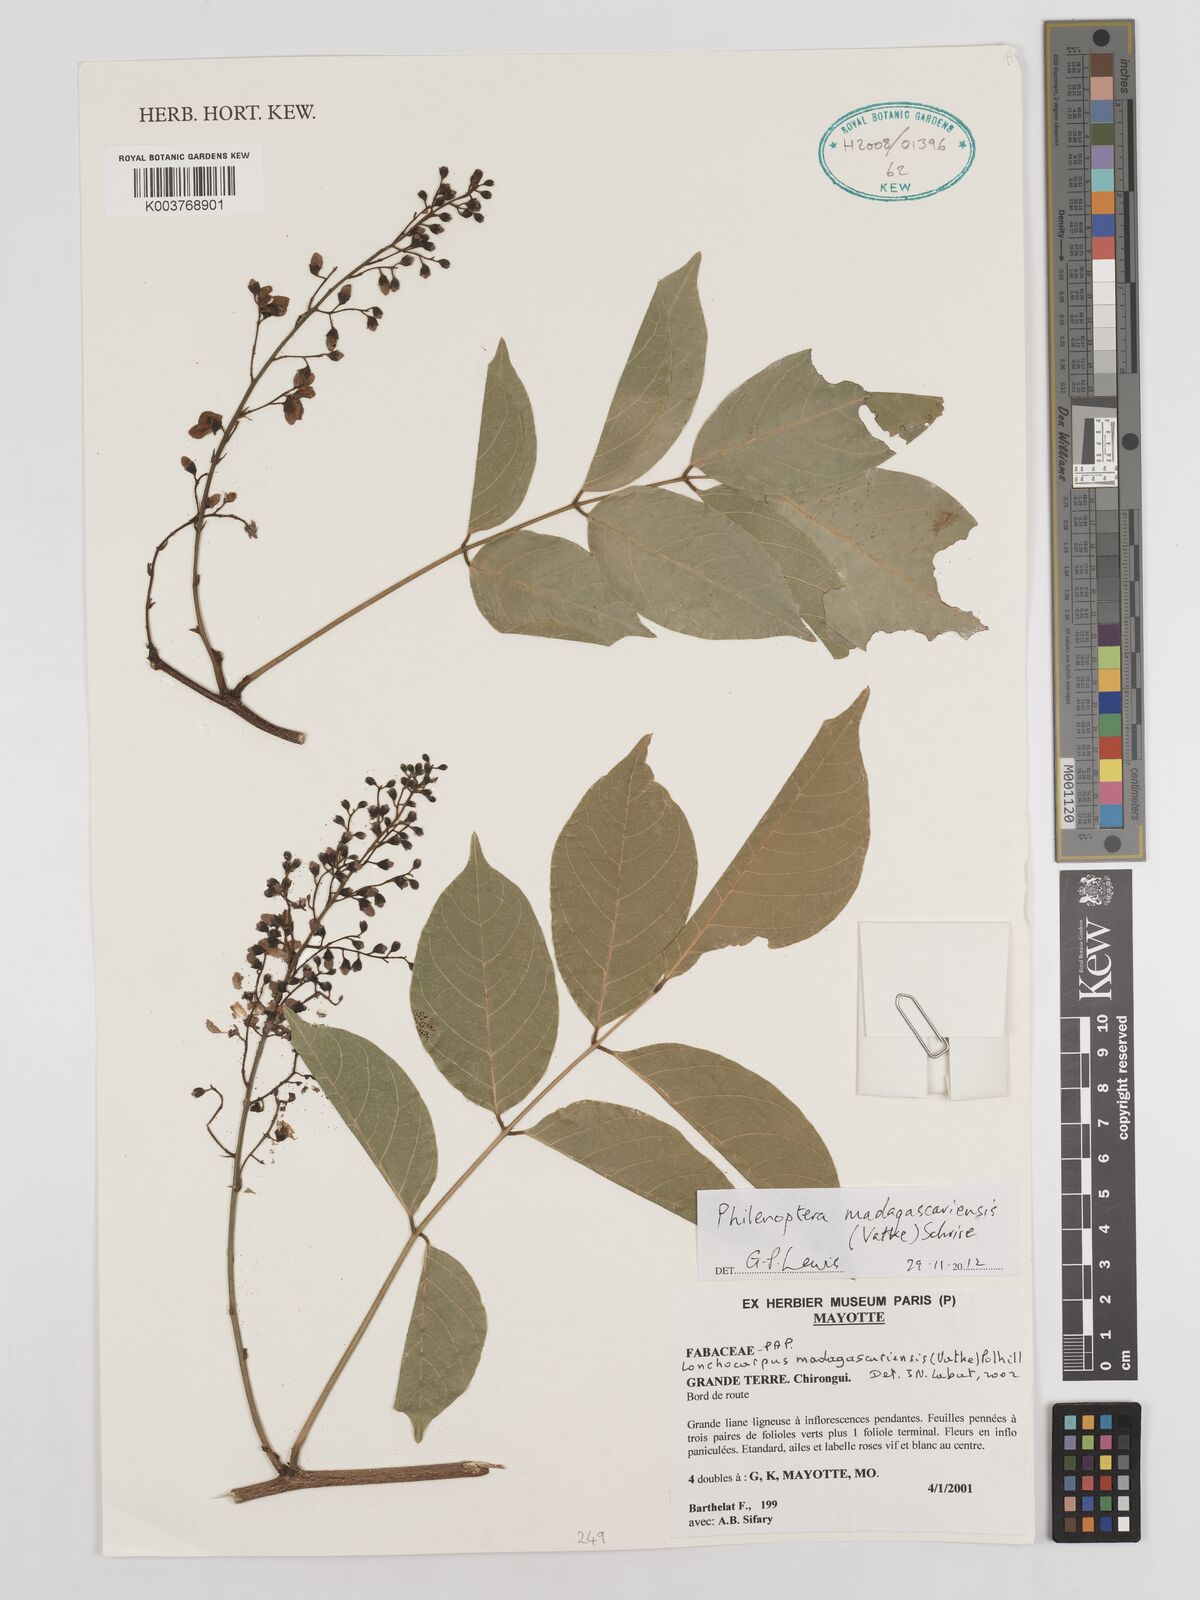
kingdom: Plantae
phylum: Tracheophyta
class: Magnoliopsida
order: Fabales
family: Fabaceae
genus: Lonchocarpus
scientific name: Lonchocarpus madagascariensis
